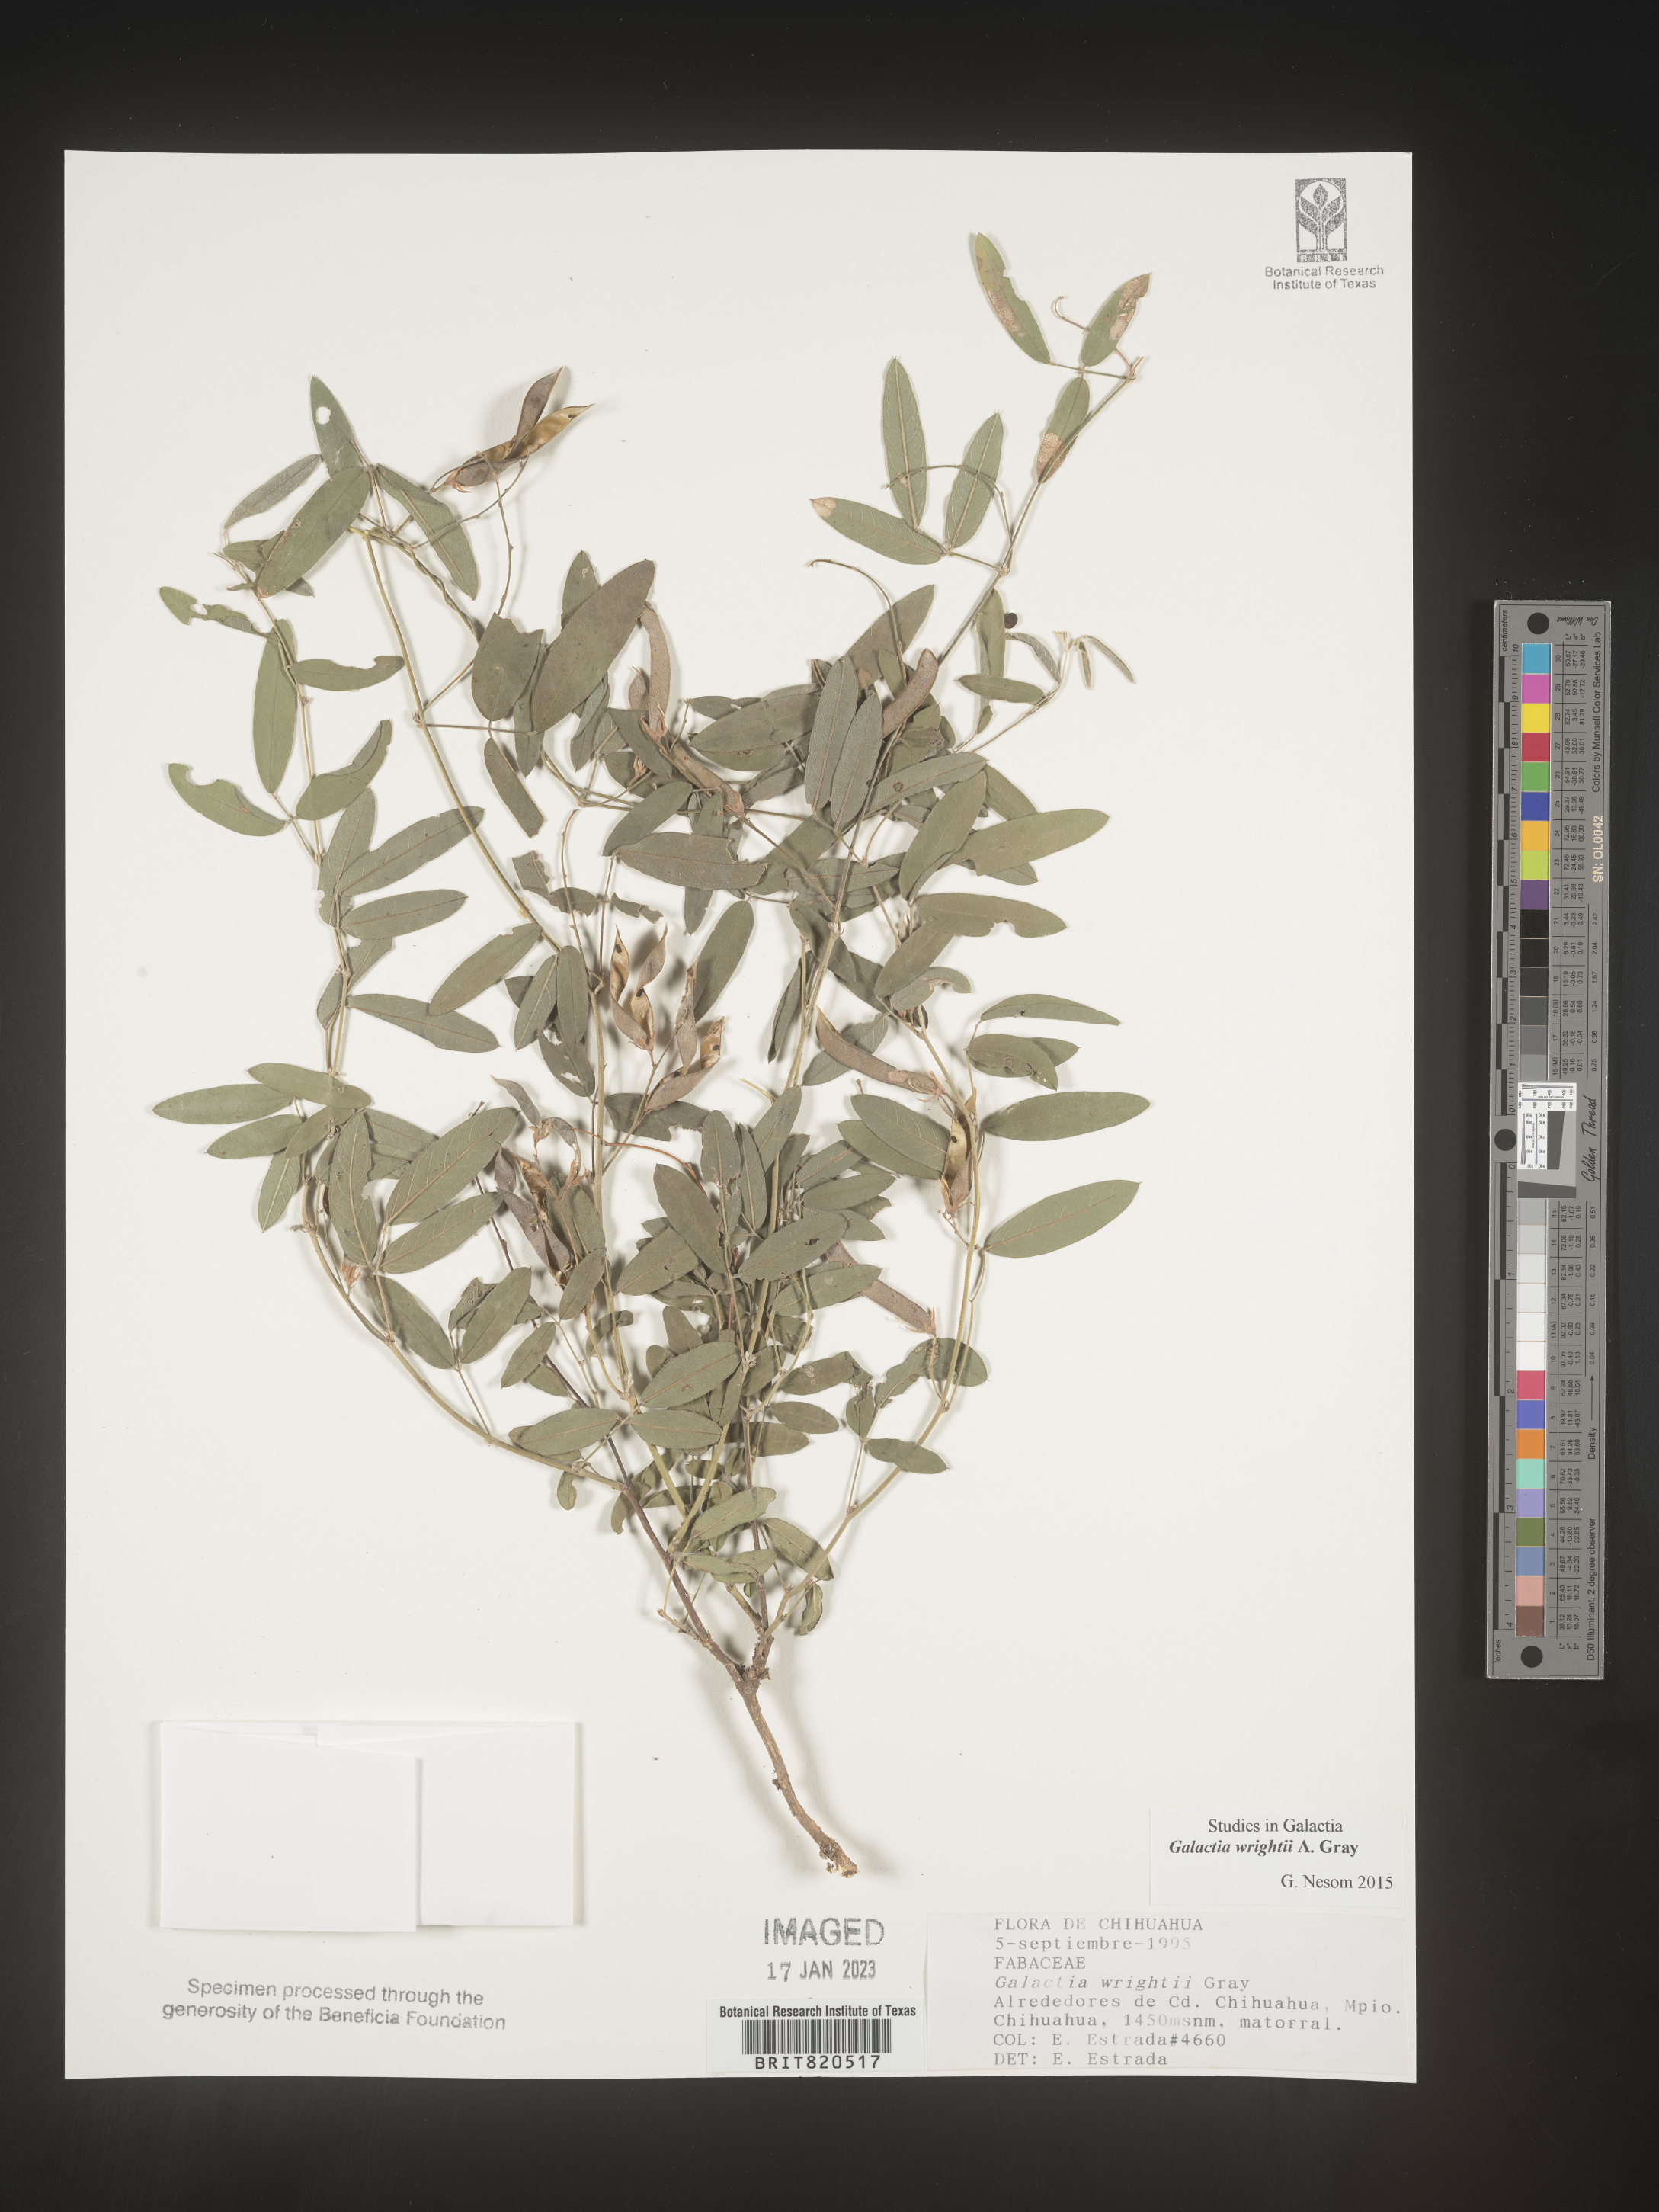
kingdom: Plantae
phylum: Tracheophyta
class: Magnoliopsida
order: Fabales
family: Fabaceae
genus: Galactia
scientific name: Galactia wrightii
